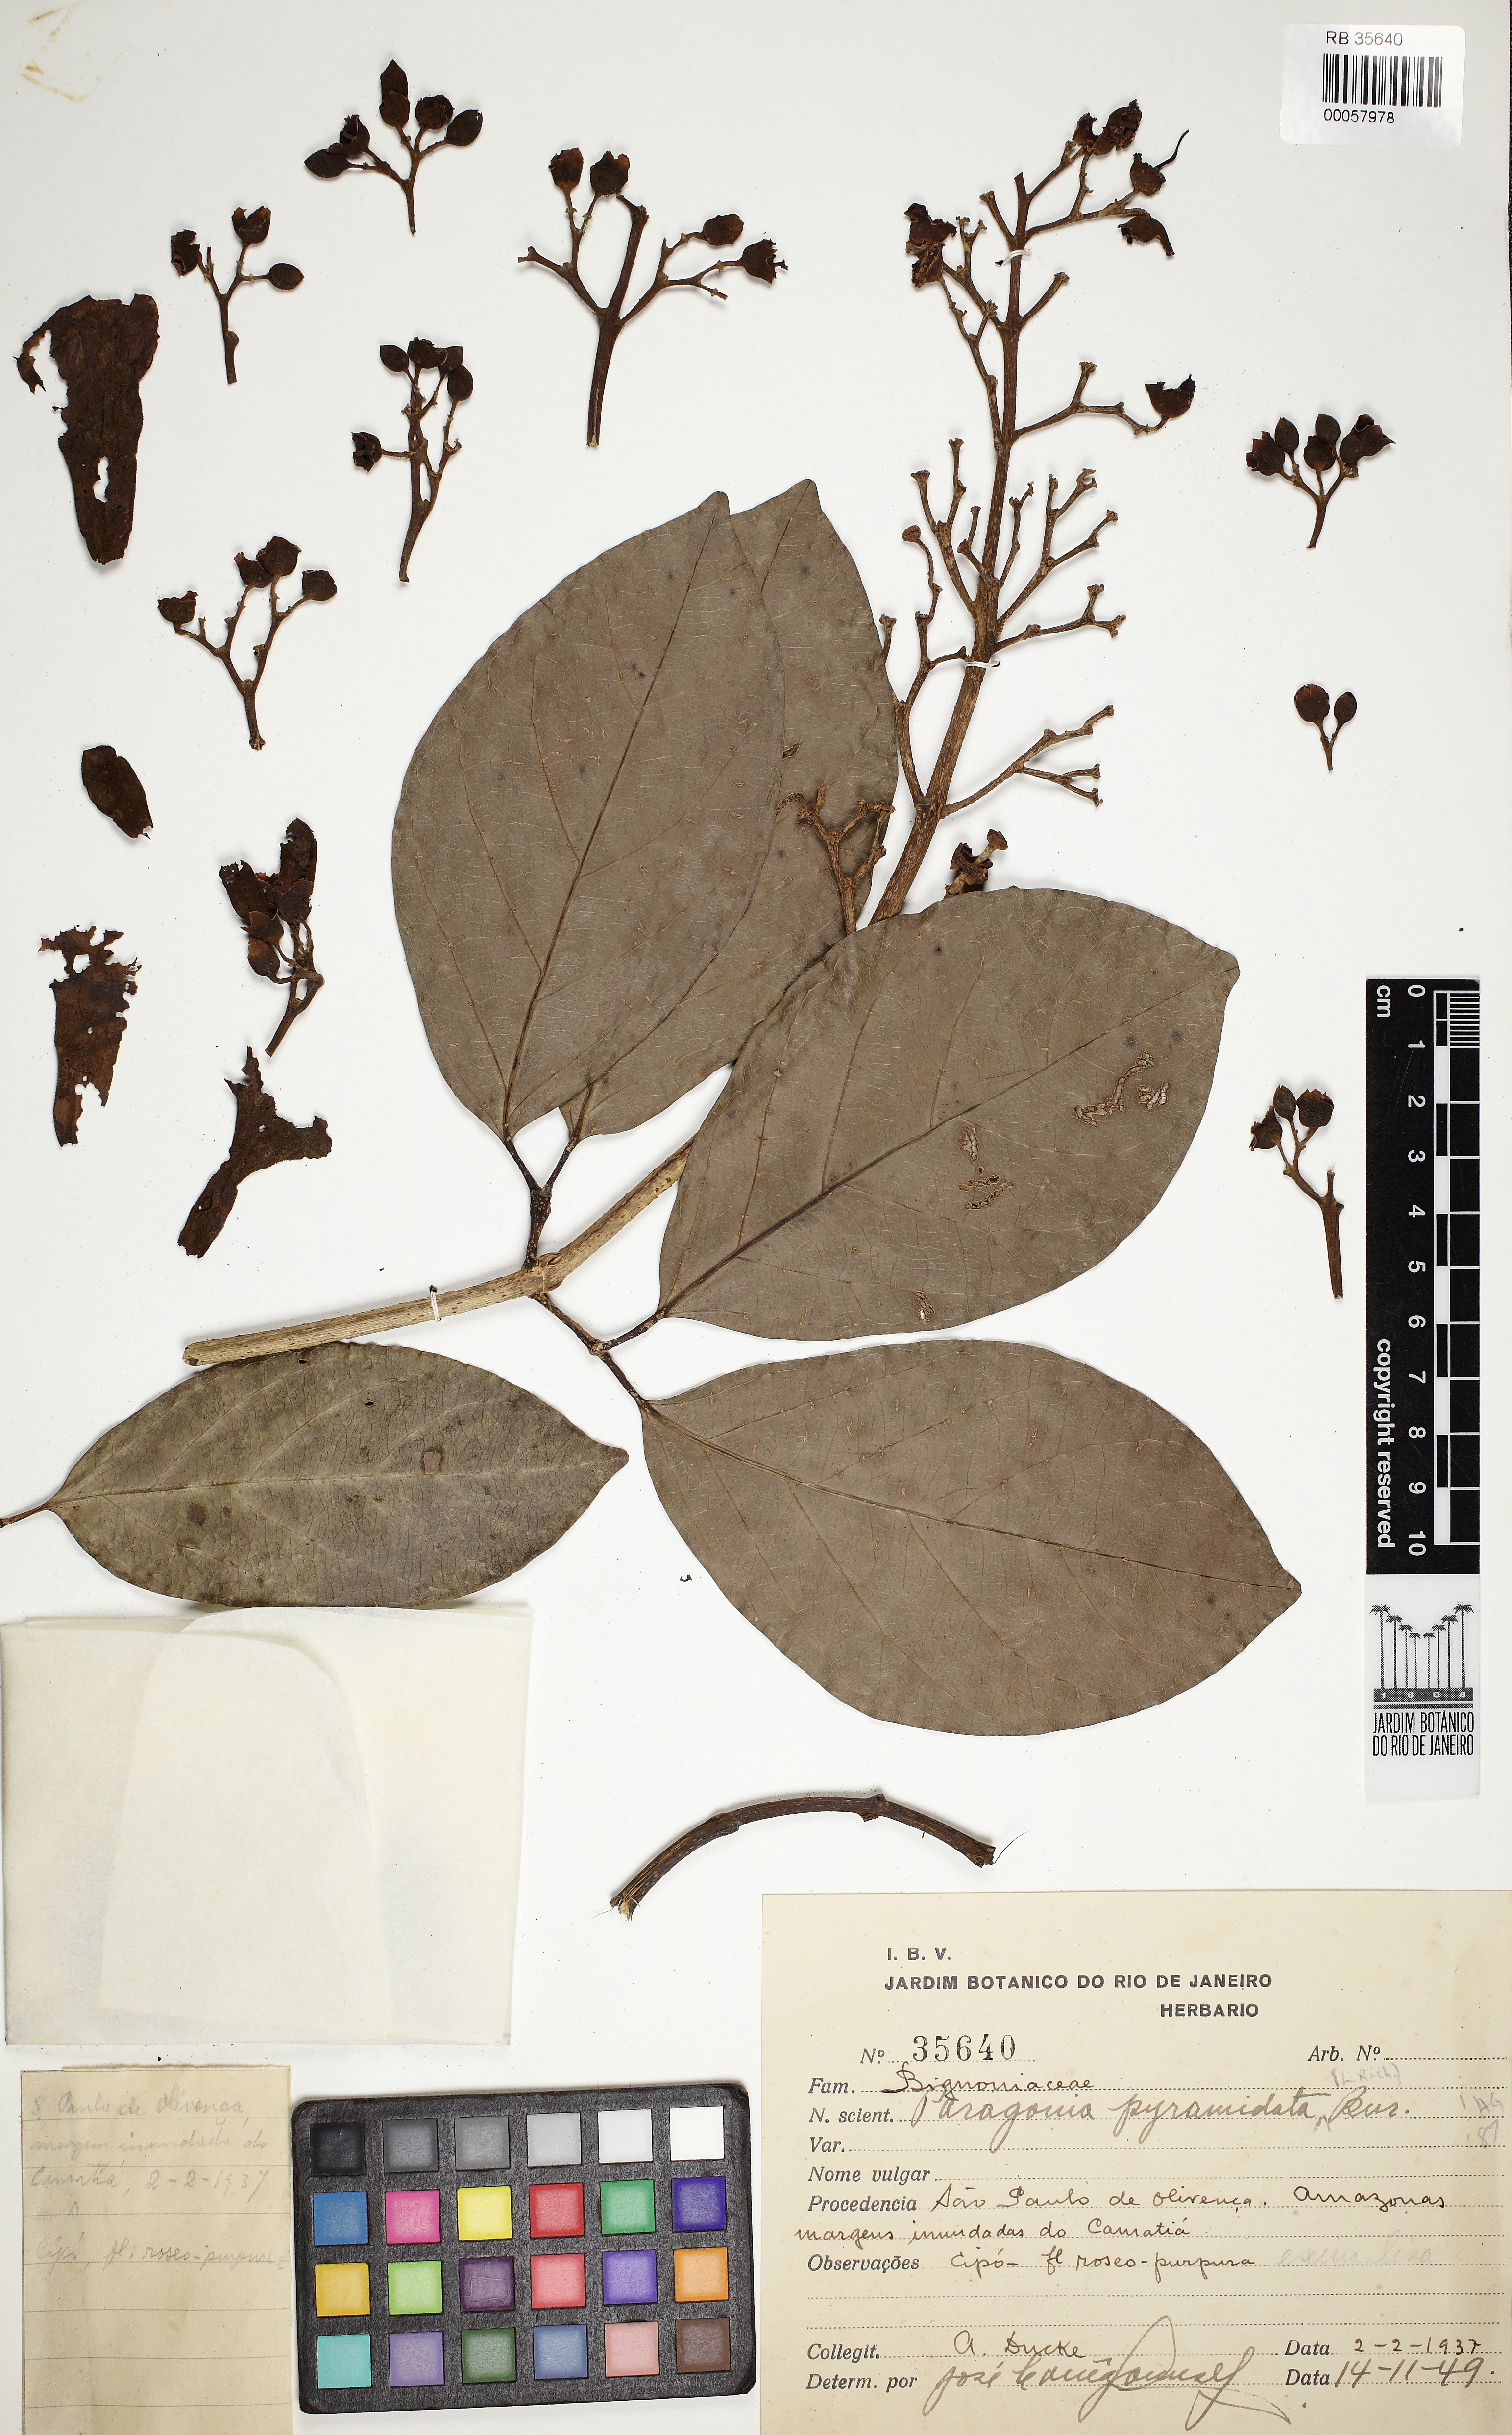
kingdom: Plantae
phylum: Tracheophyta
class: Magnoliopsida
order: Lamiales
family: Bignoniaceae
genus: Tanaecium
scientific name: Tanaecium pyramidatum
